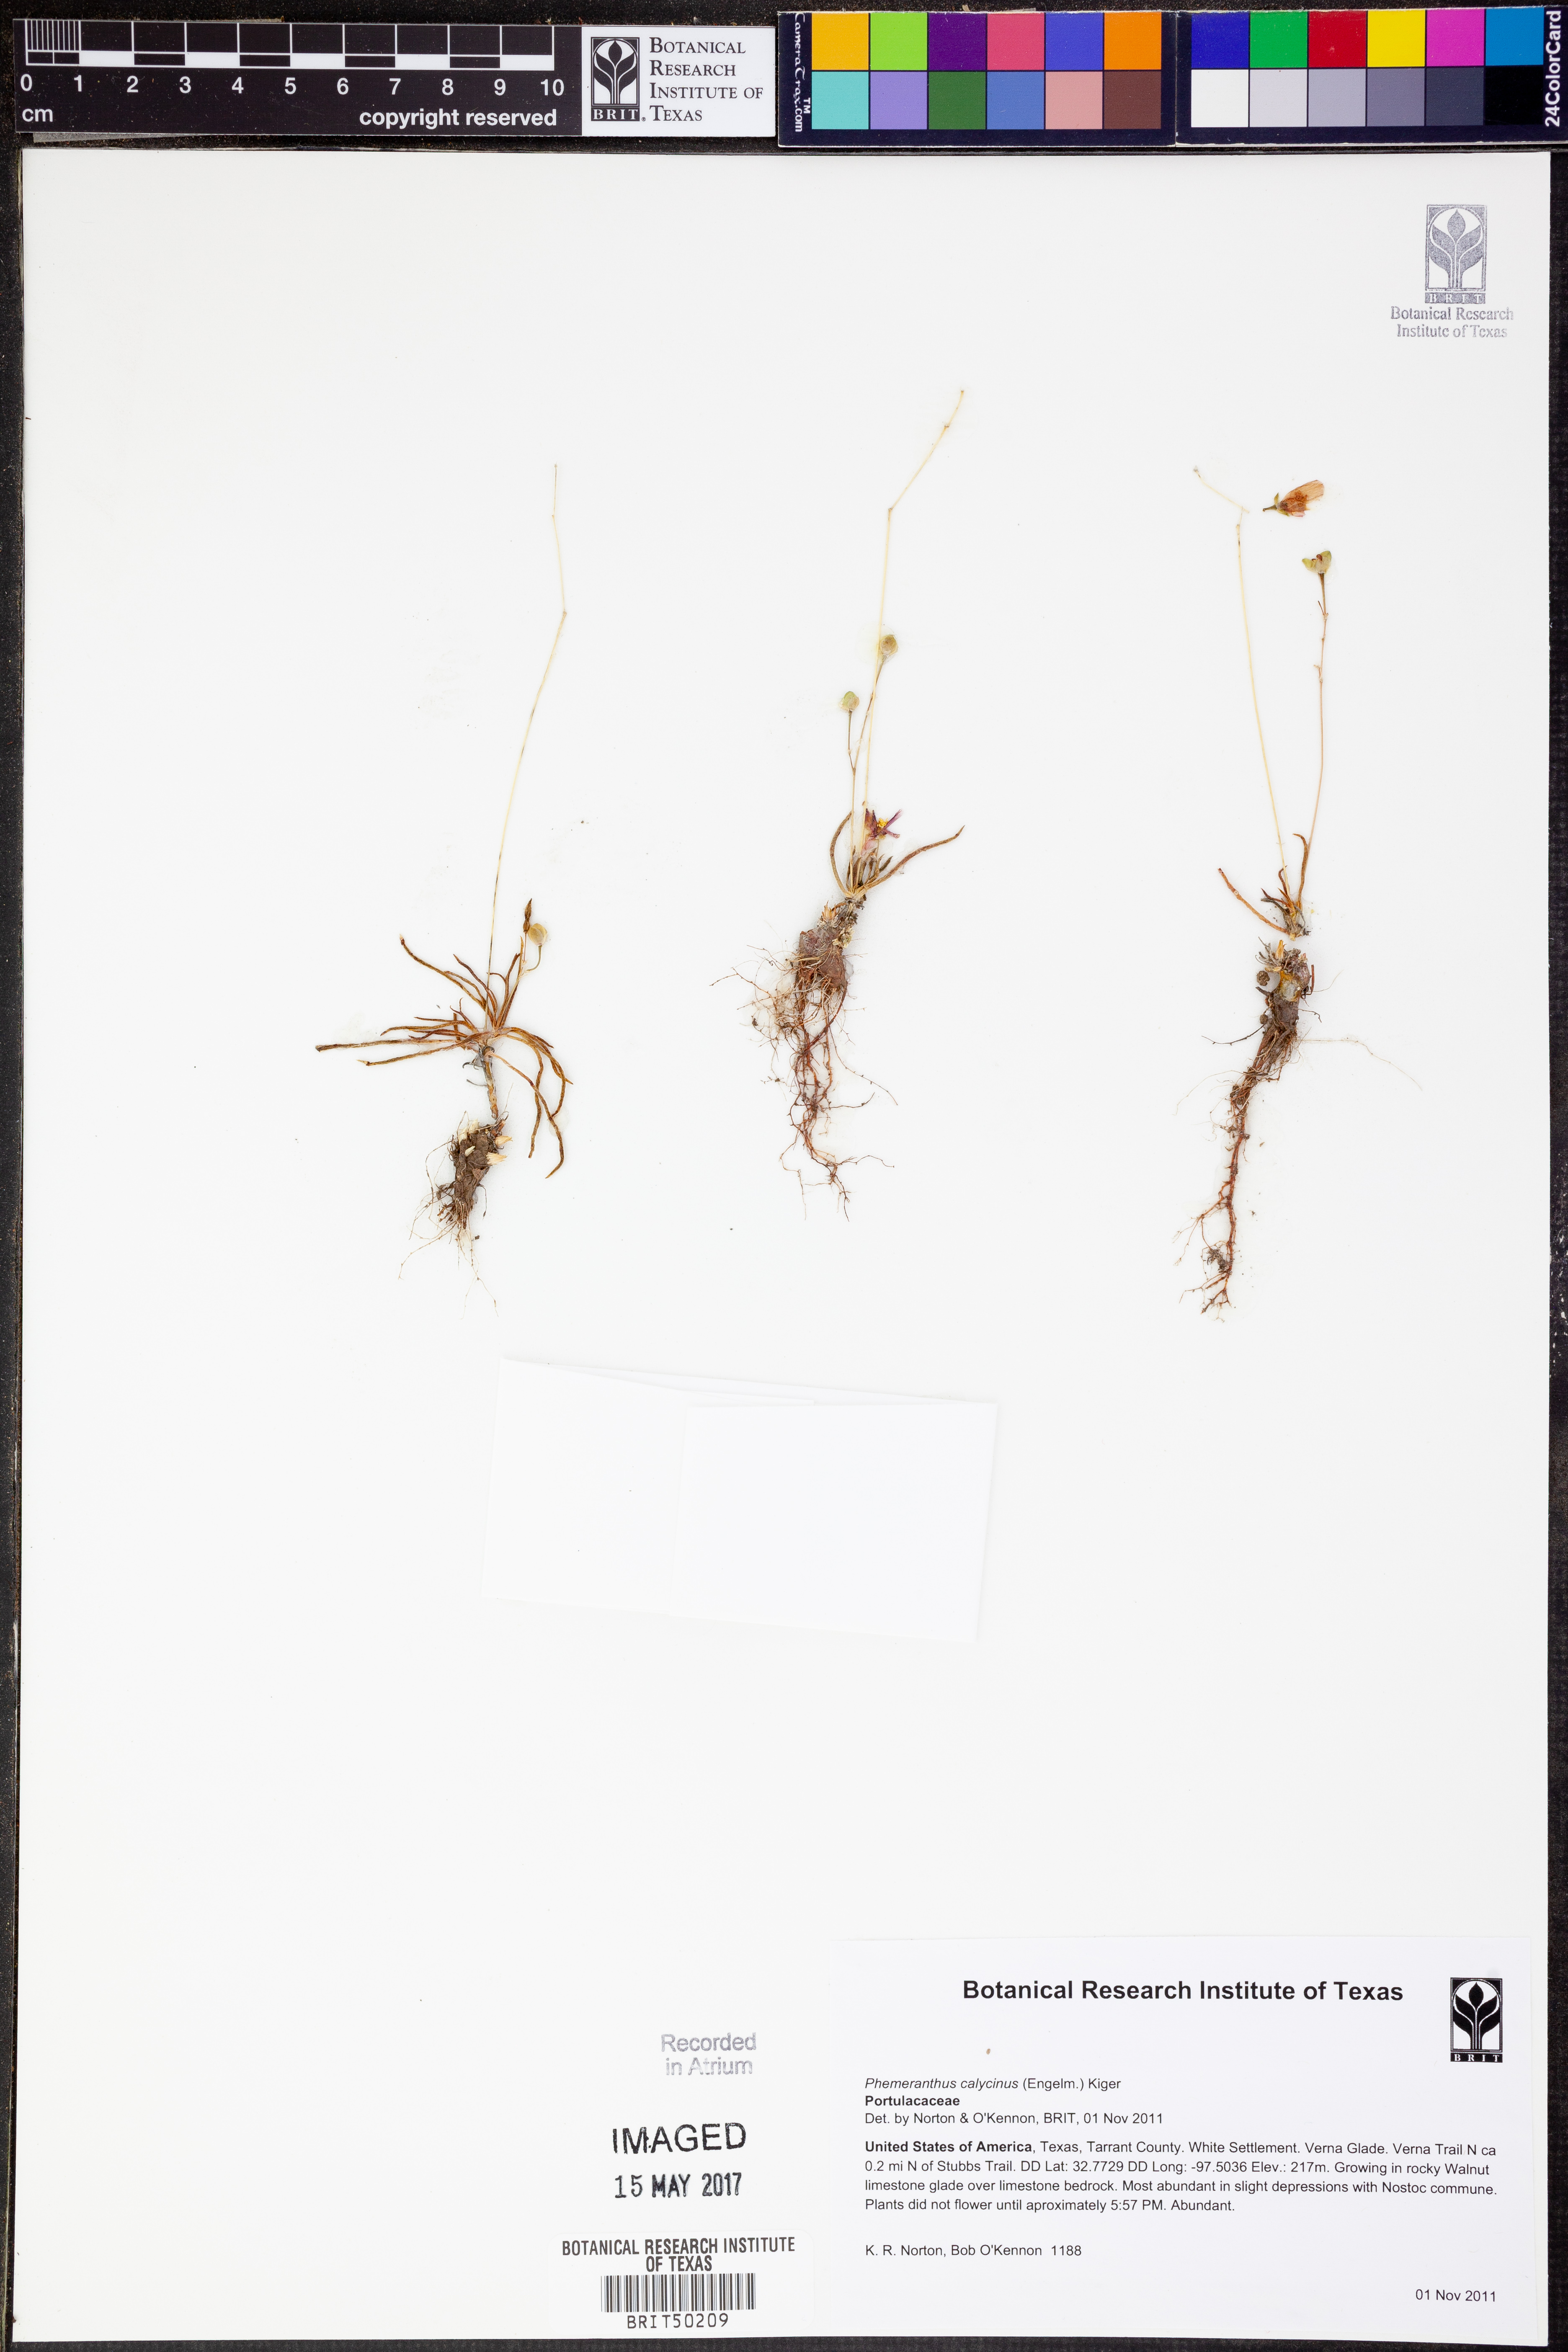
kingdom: Plantae
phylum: Tracheophyta
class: Magnoliopsida
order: Caryophyllales
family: Montiaceae
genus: Phemeranthus
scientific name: Phemeranthus calycinus
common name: Largeflower fameflower
